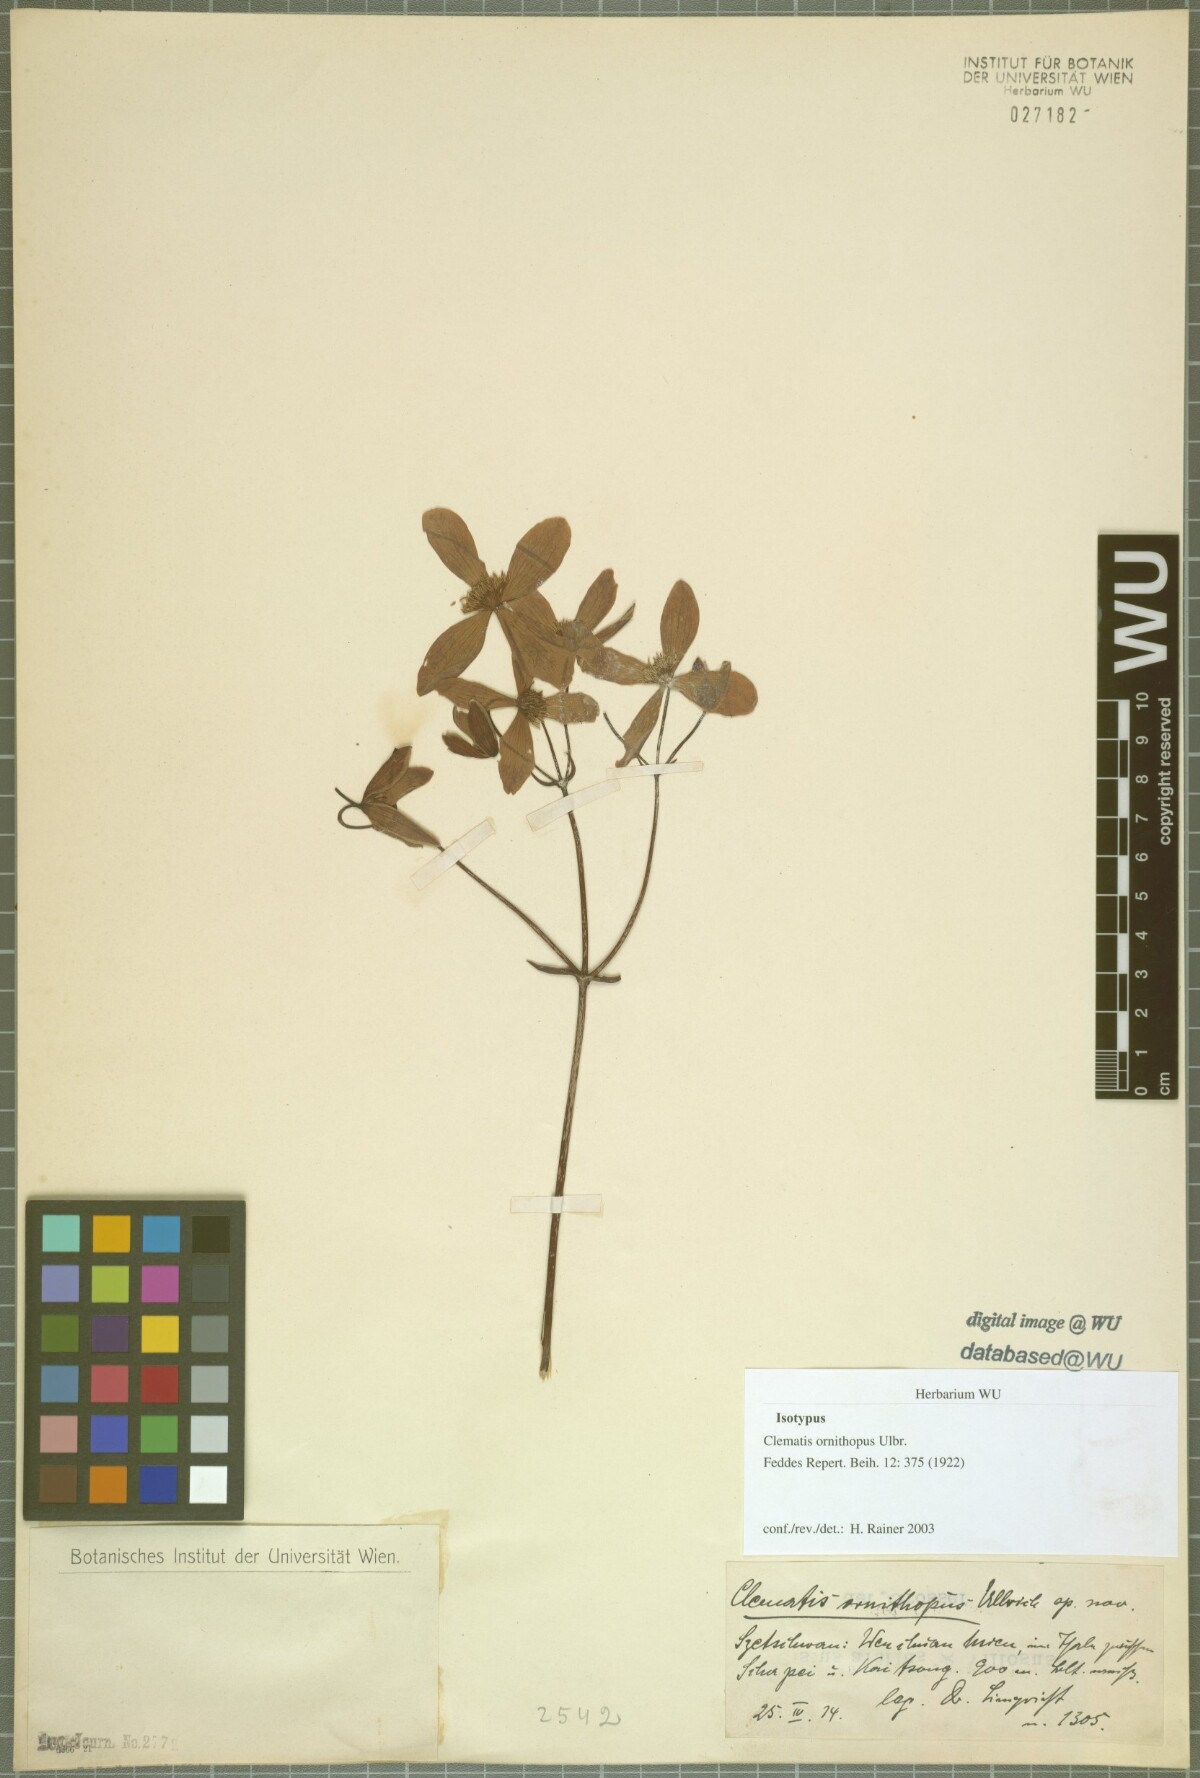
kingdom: Plantae
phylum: Tracheophyta
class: Magnoliopsida
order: Ranunculales
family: Ranunculaceae
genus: Clematis
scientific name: Clematis armandii
